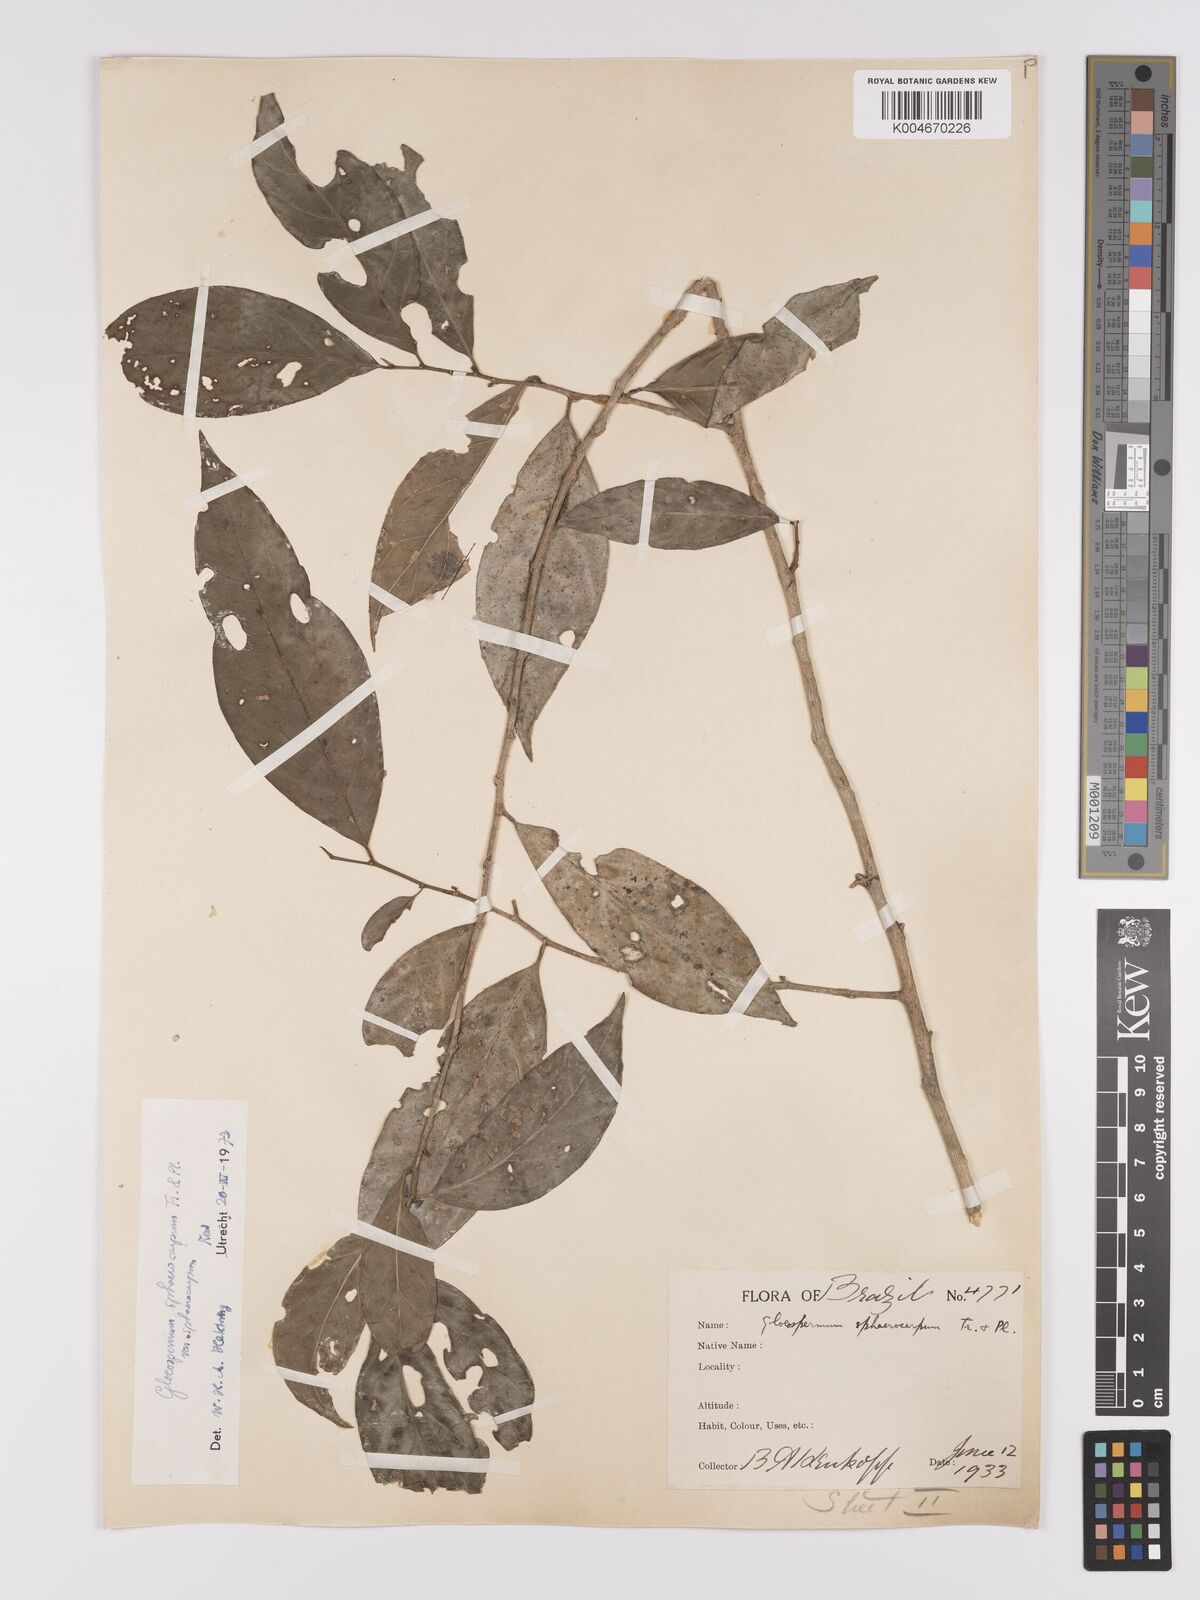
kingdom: Plantae
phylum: Tracheophyta
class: Magnoliopsida
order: Malpighiales
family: Violaceae
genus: Gloeospermum
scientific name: Gloeospermum sphaerocarpum
